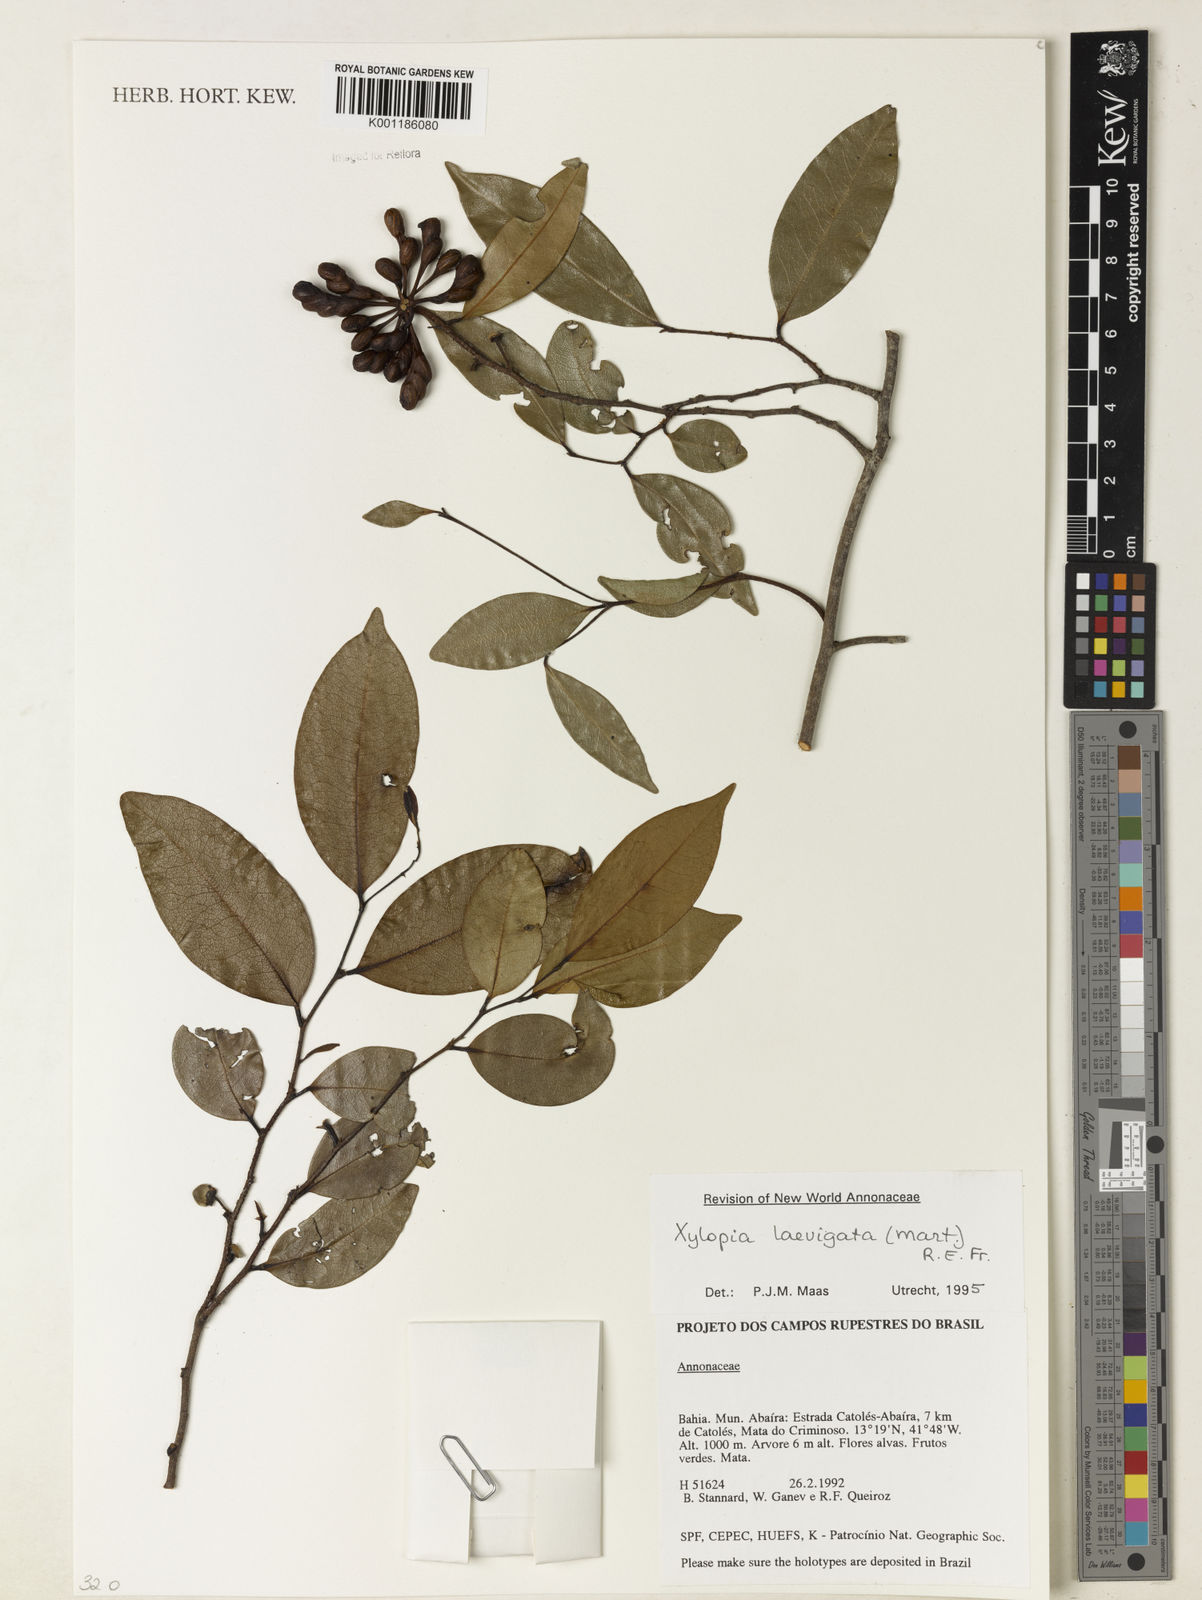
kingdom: Plantae
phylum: Tracheophyta
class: Magnoliopsida
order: Magnoliales
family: Annonaceae
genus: Xylopia
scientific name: Xylopia laevigata
